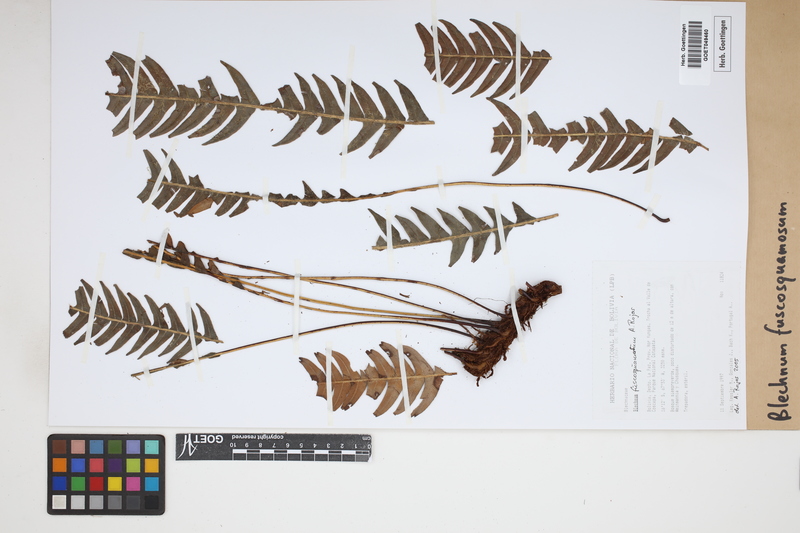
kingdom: Plantae
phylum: Tracheophyta
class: Polypodiopsida
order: Polypodiales
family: Blechnaceae
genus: Lomaridium
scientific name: Lomaridium fuscosquamosum
